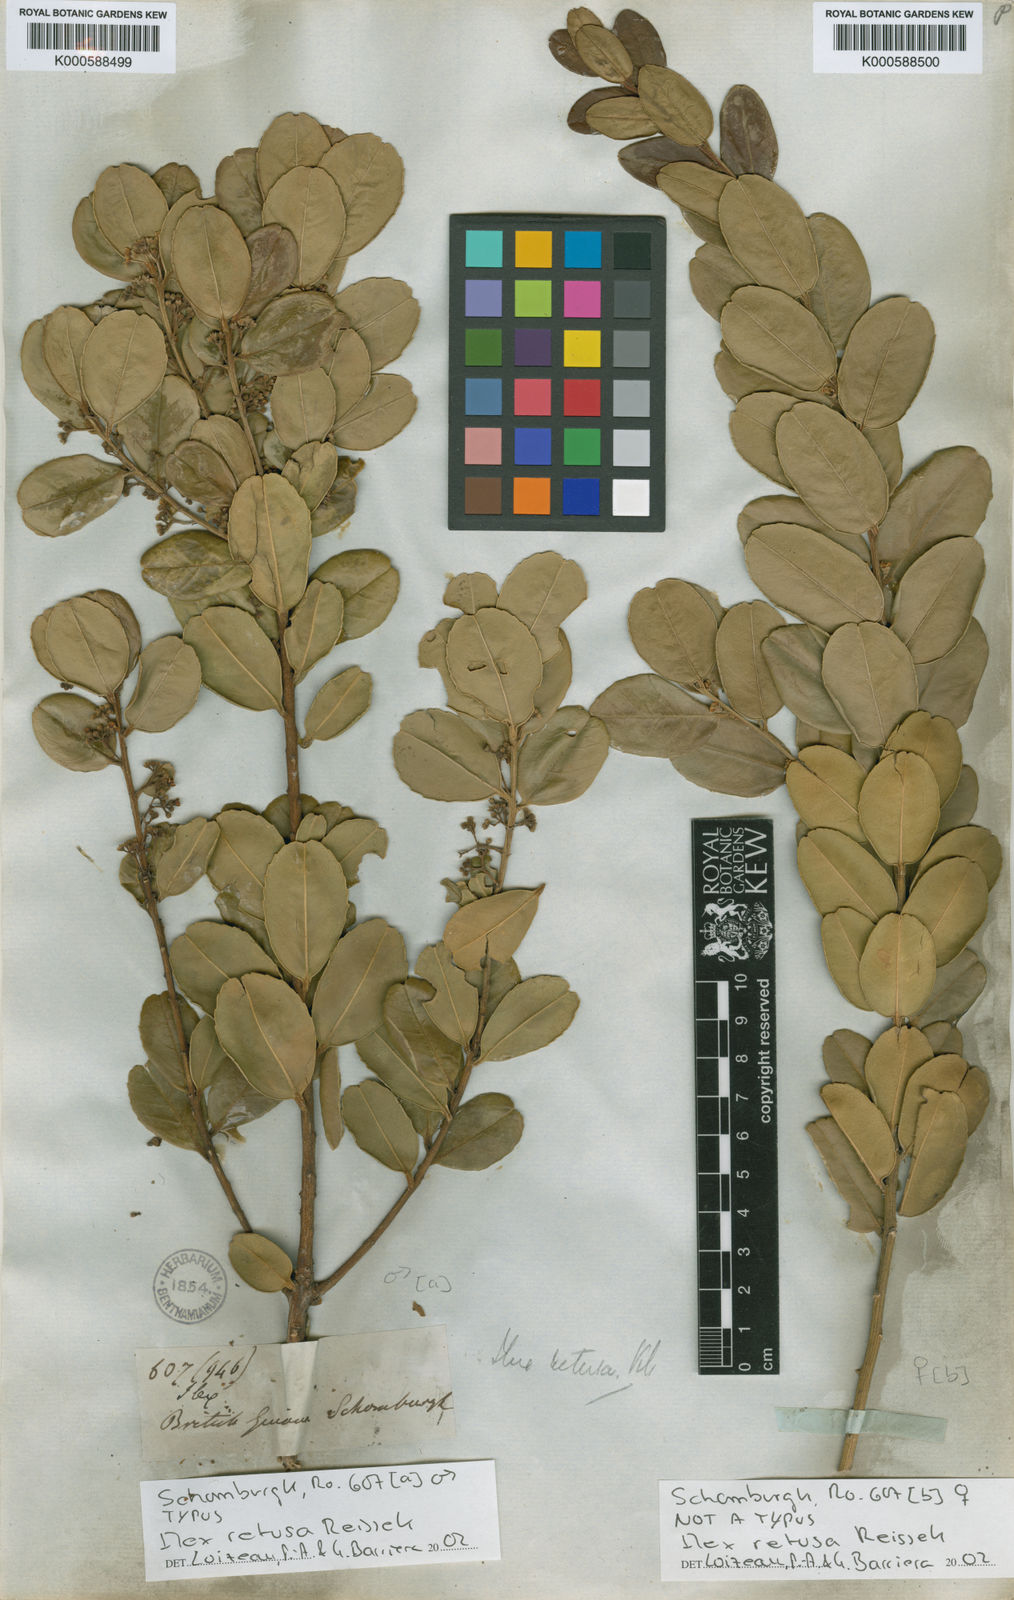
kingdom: Plantae
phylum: Tracheophyta
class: Magnoliopsida
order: Aquifoliales
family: Aquifoliaceae
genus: Ilex
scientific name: Ilex
